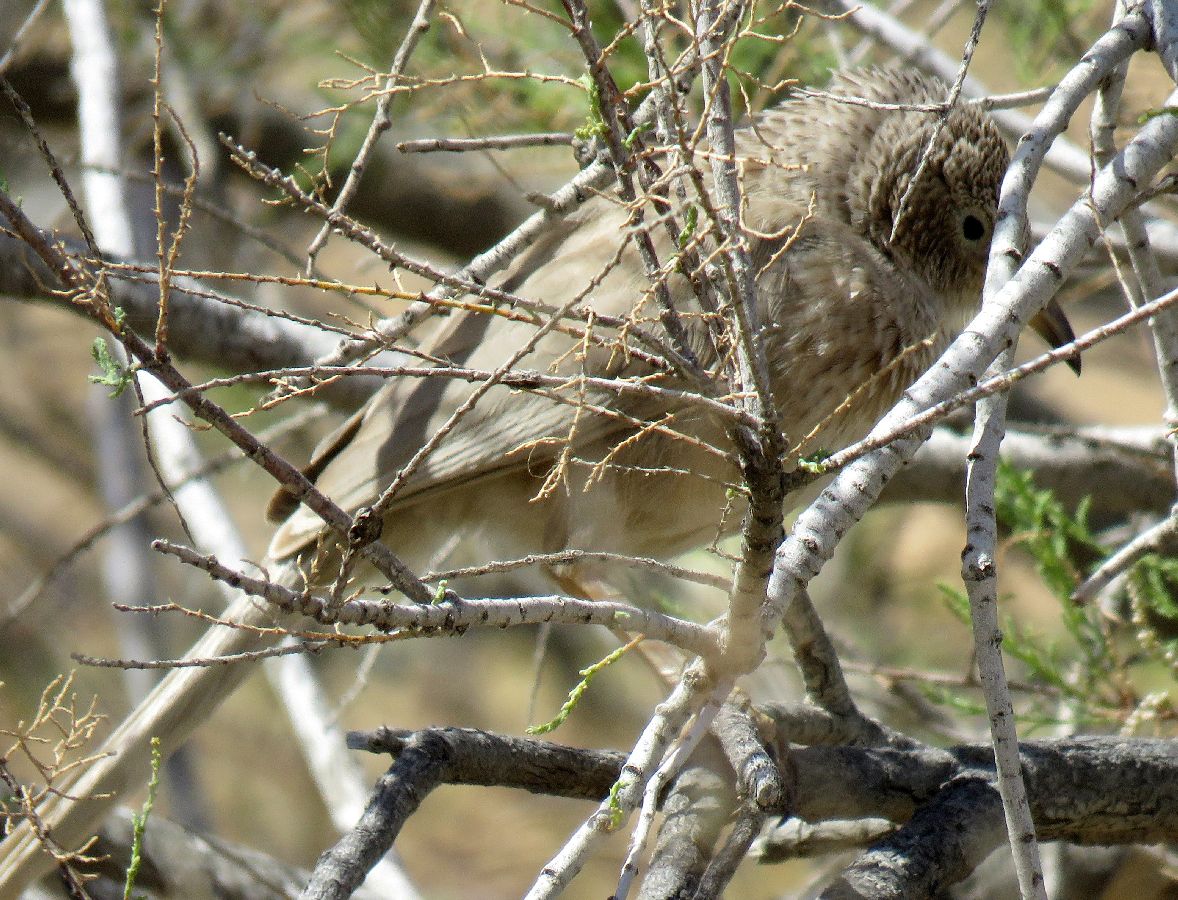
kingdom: Animalia
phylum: Chordata
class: Aves
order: Passeriformes
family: Leiothrichidae
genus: Turdoides
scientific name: Turdoides squamiceps
